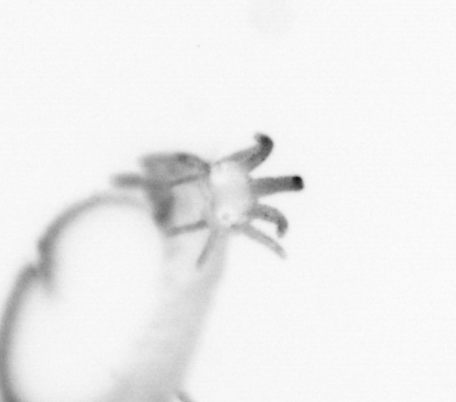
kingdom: Animalia
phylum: Annelida
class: Polychaeta
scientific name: Polychaeta
